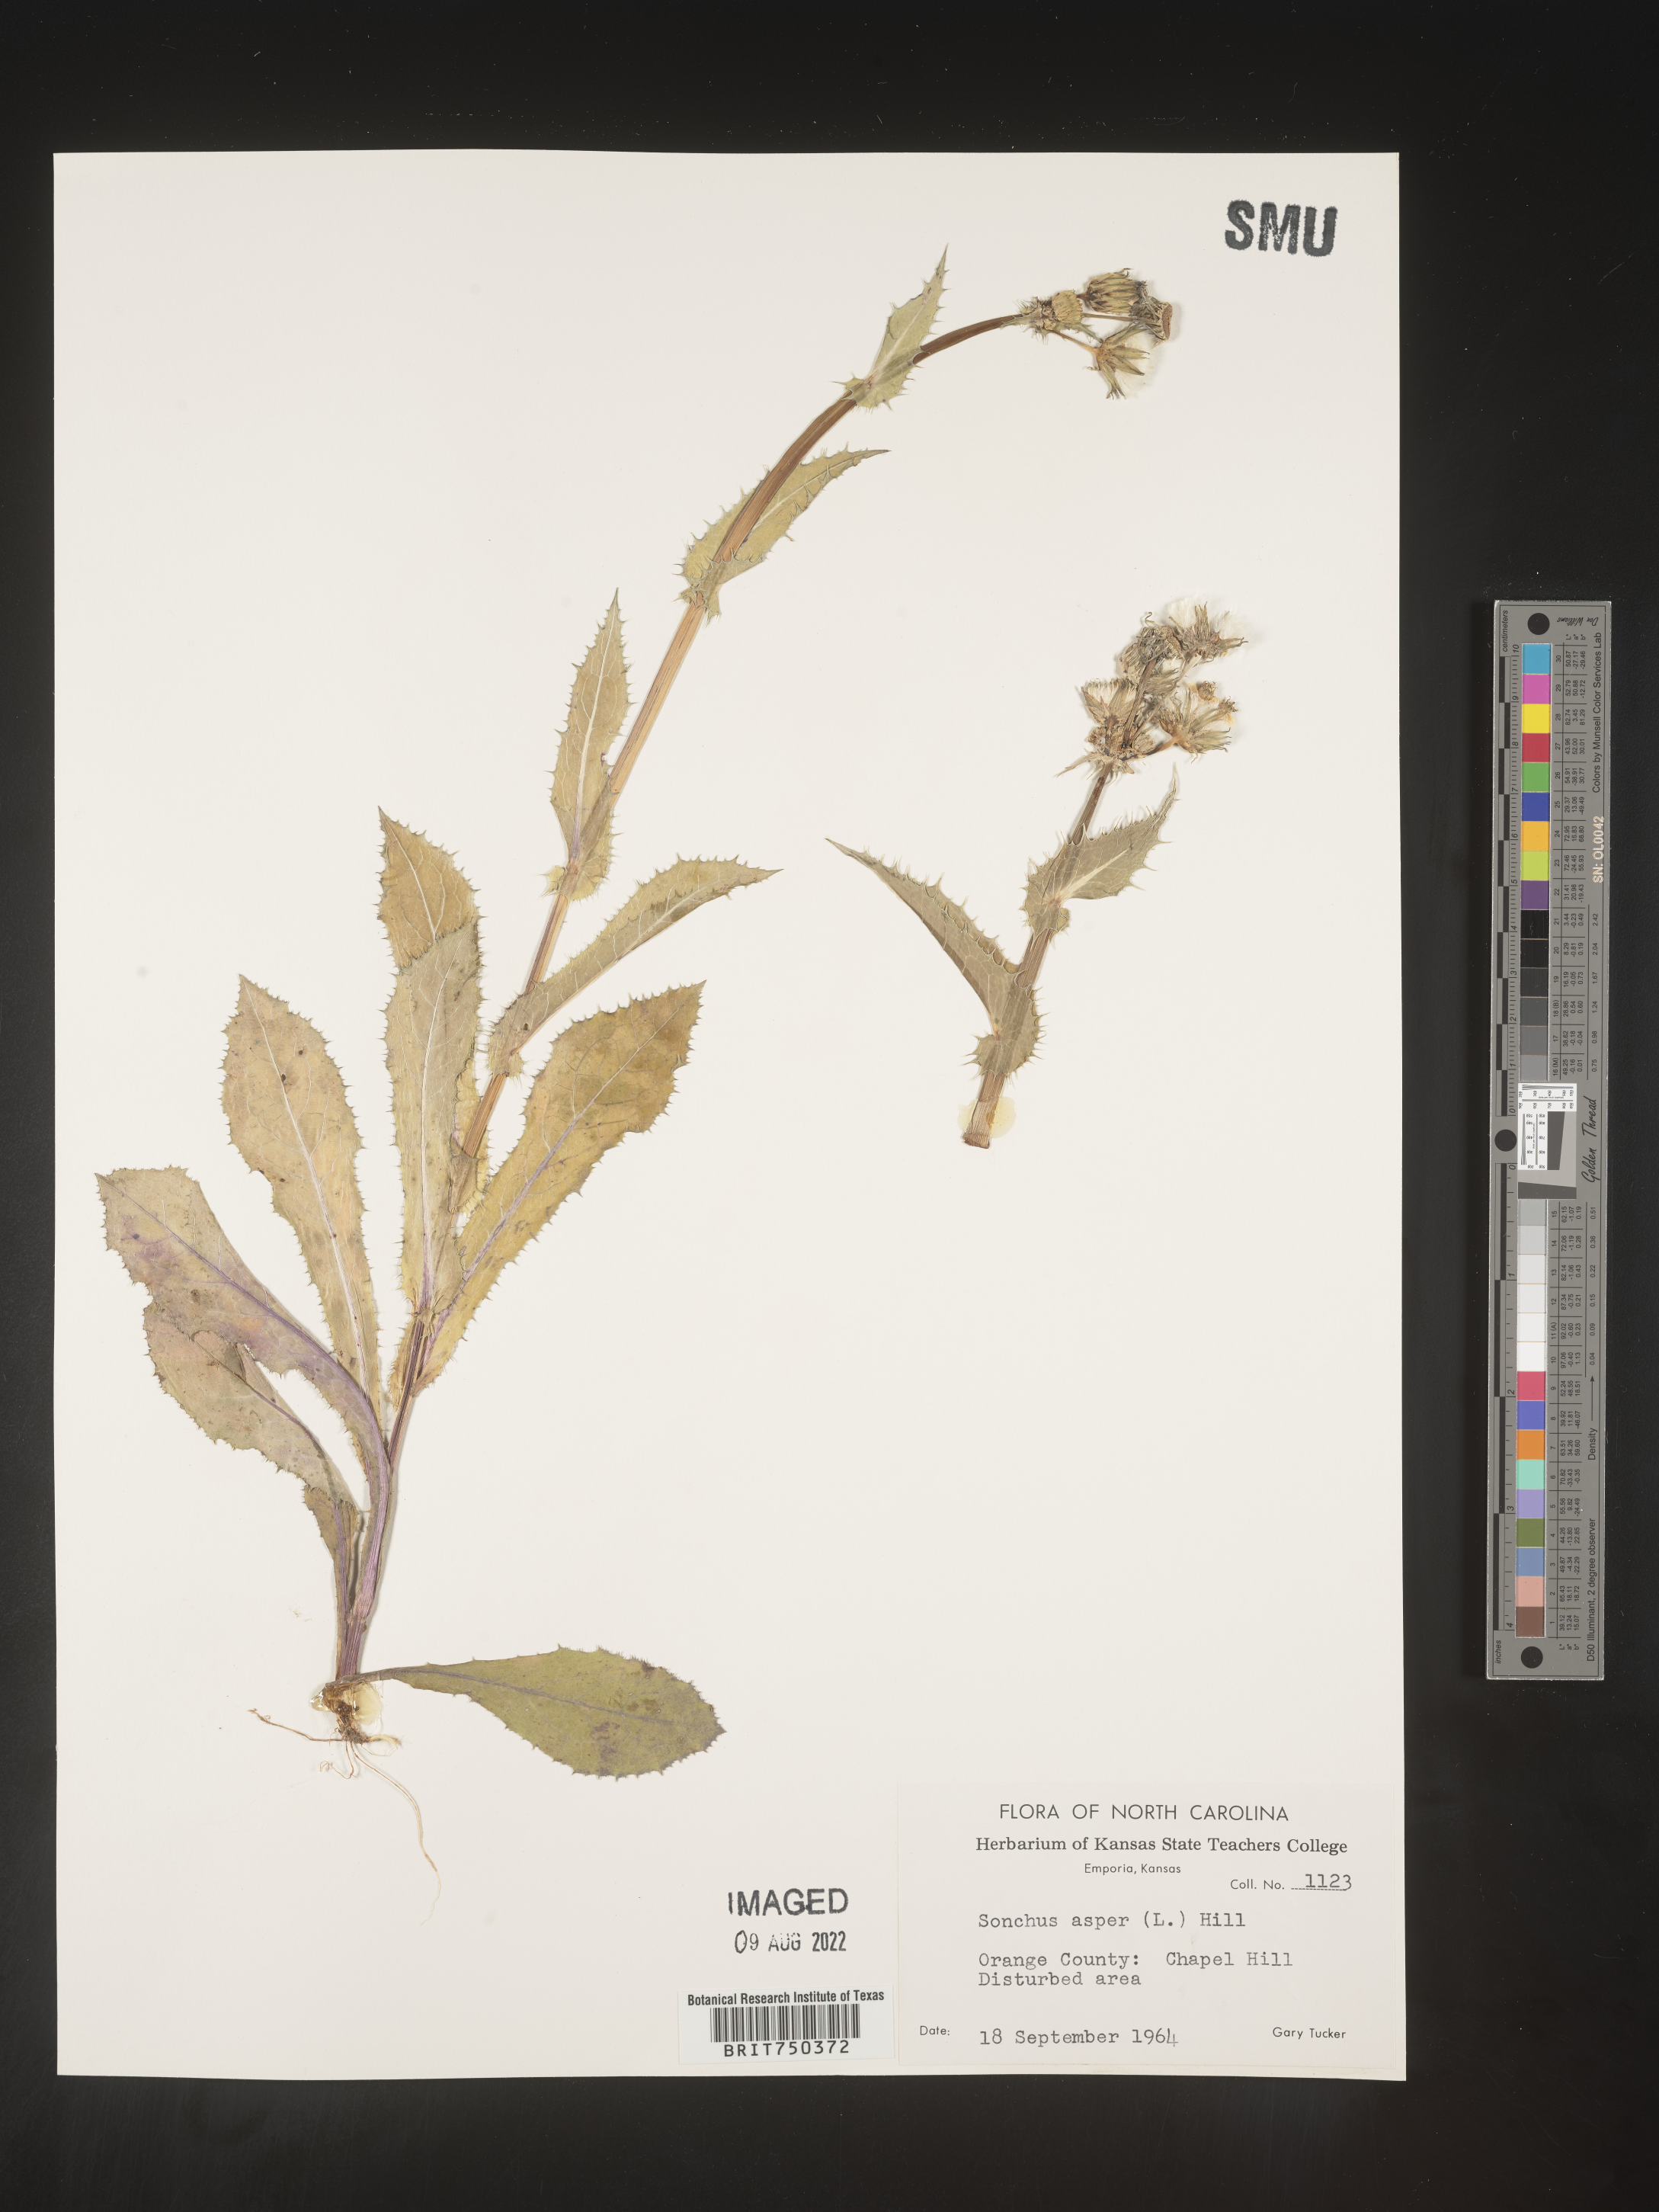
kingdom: Plantae
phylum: Tracheophyta
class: Magnoliopsida
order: Asterales
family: Asteraceae
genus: Sonchus
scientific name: Sonchus asper
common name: Prickly sow-thistle
